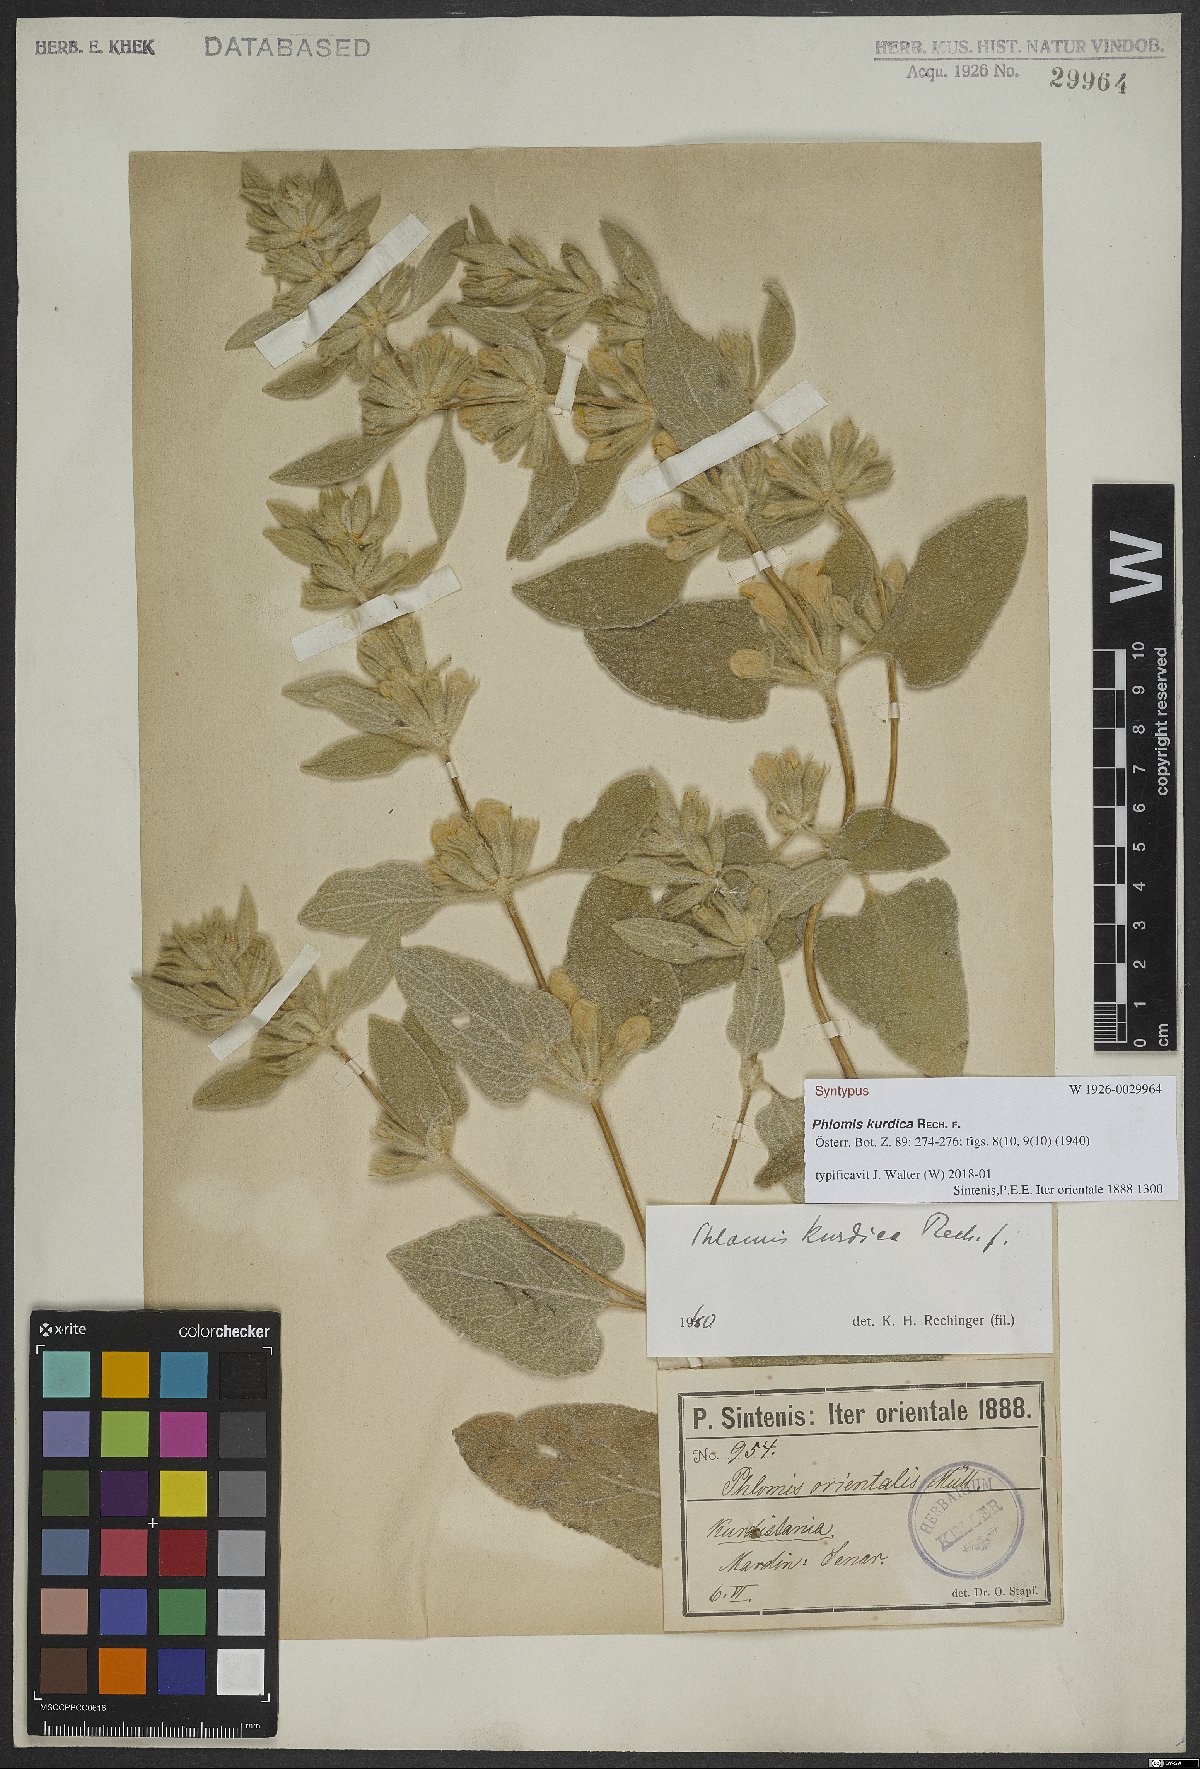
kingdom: Plantae
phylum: Tracheophyta
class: Magnoliopsida
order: Lamiales
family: Lamiaceae
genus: Phlomis
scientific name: Phlomis kurdica
